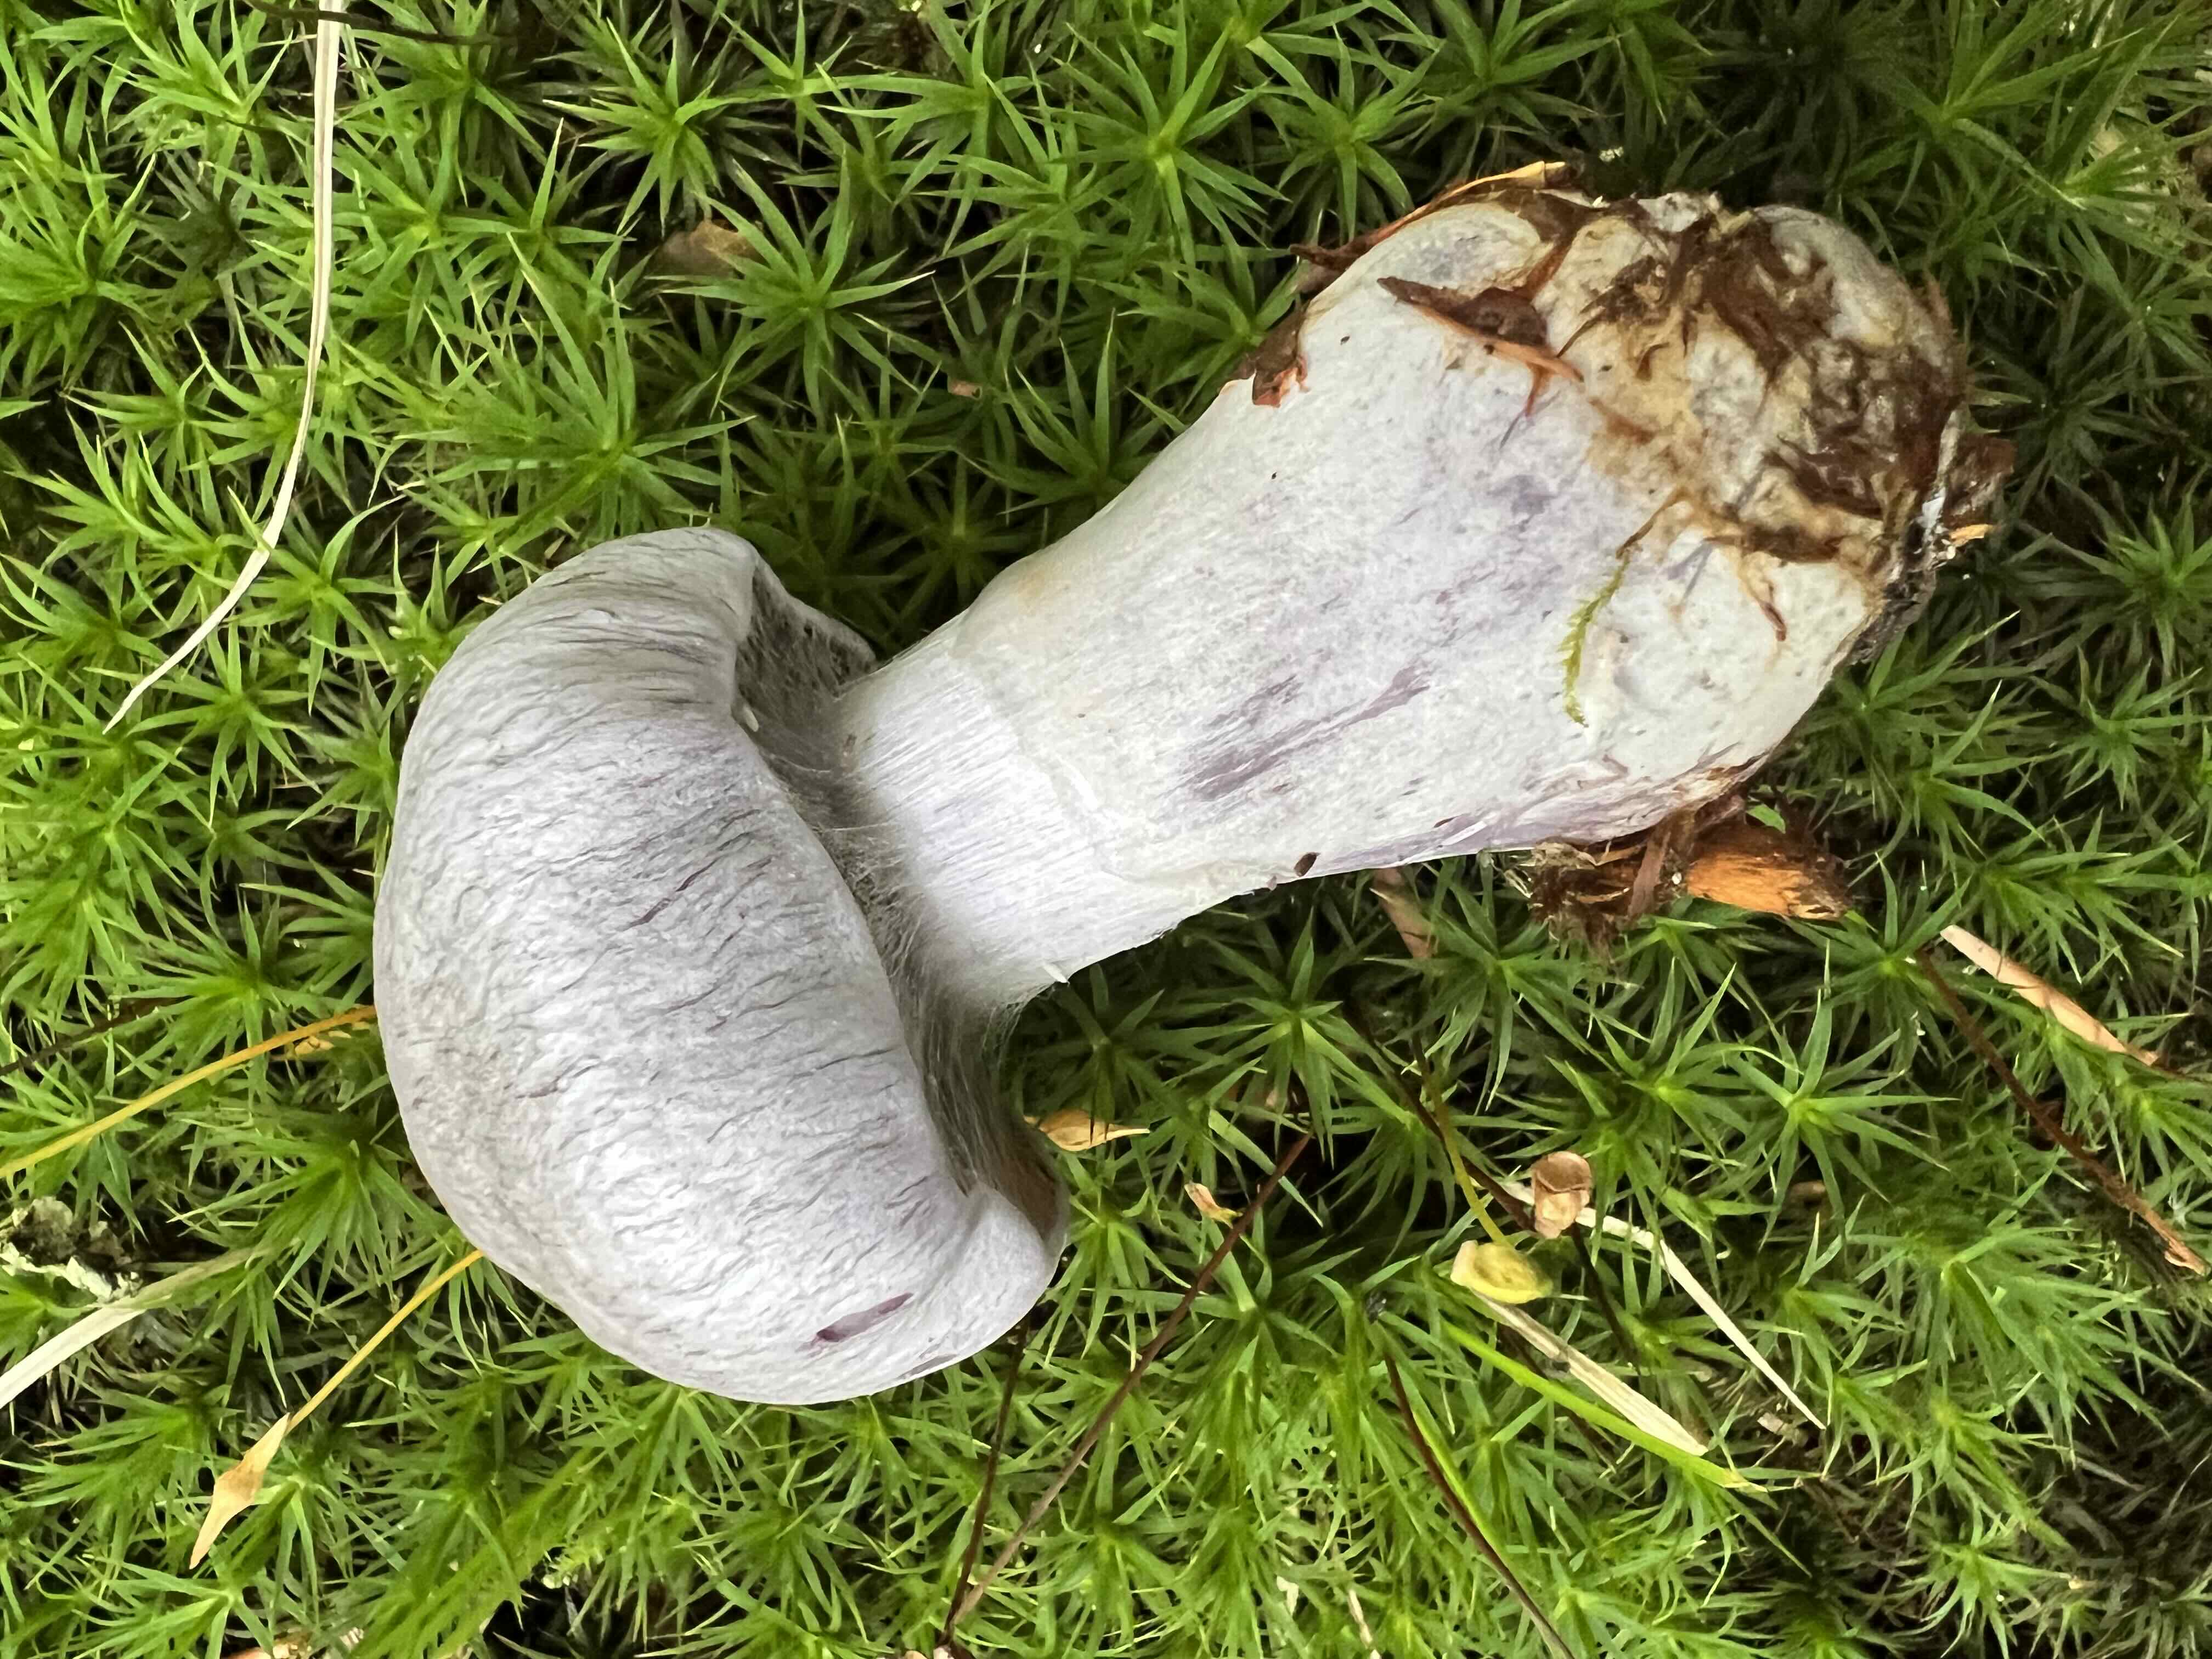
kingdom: Fungi
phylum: Basidiomycota
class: Agaricomycetes
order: Agaricales
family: Cortinariaceae
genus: Cortinarius
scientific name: Cortinarius alboviolaceus
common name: lysviolet slørhat
